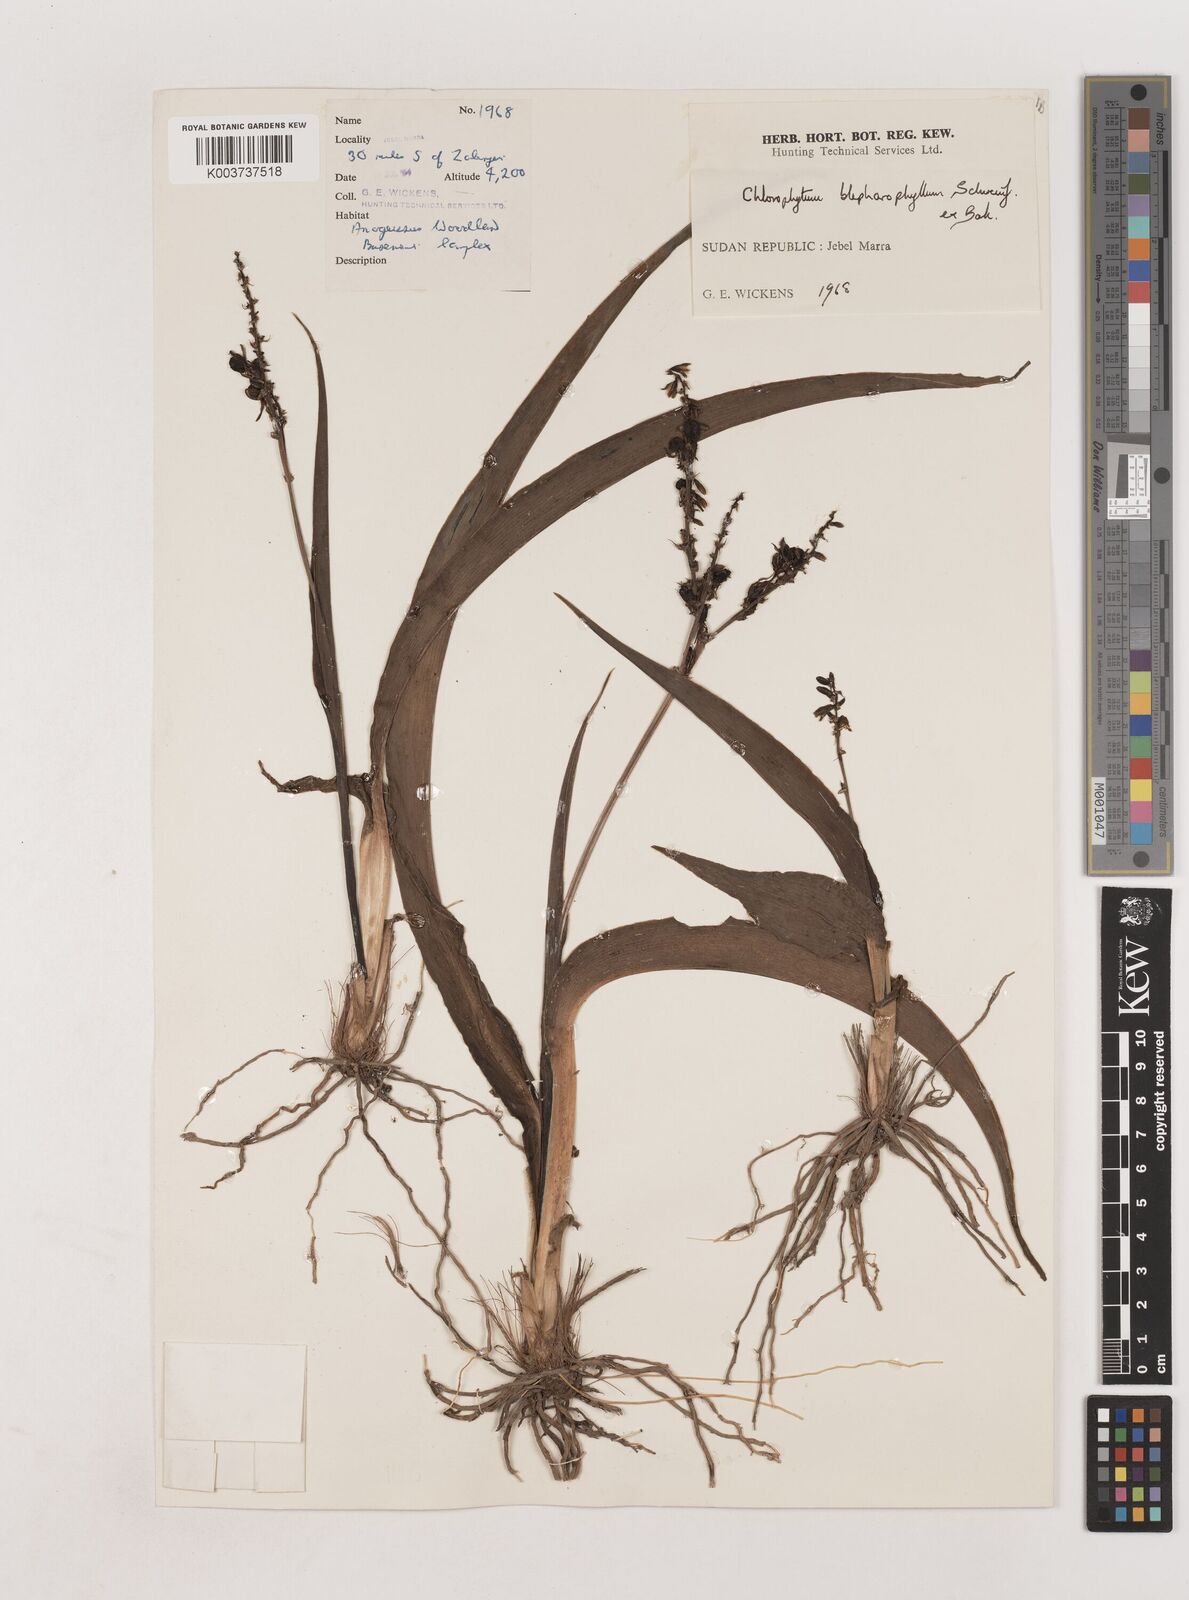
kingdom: Plantae
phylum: Tracheophyta
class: Liliopsida
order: Asparagales
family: Asparagaceae
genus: Chlorophytum
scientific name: Chlorophytum blepharophyllum
